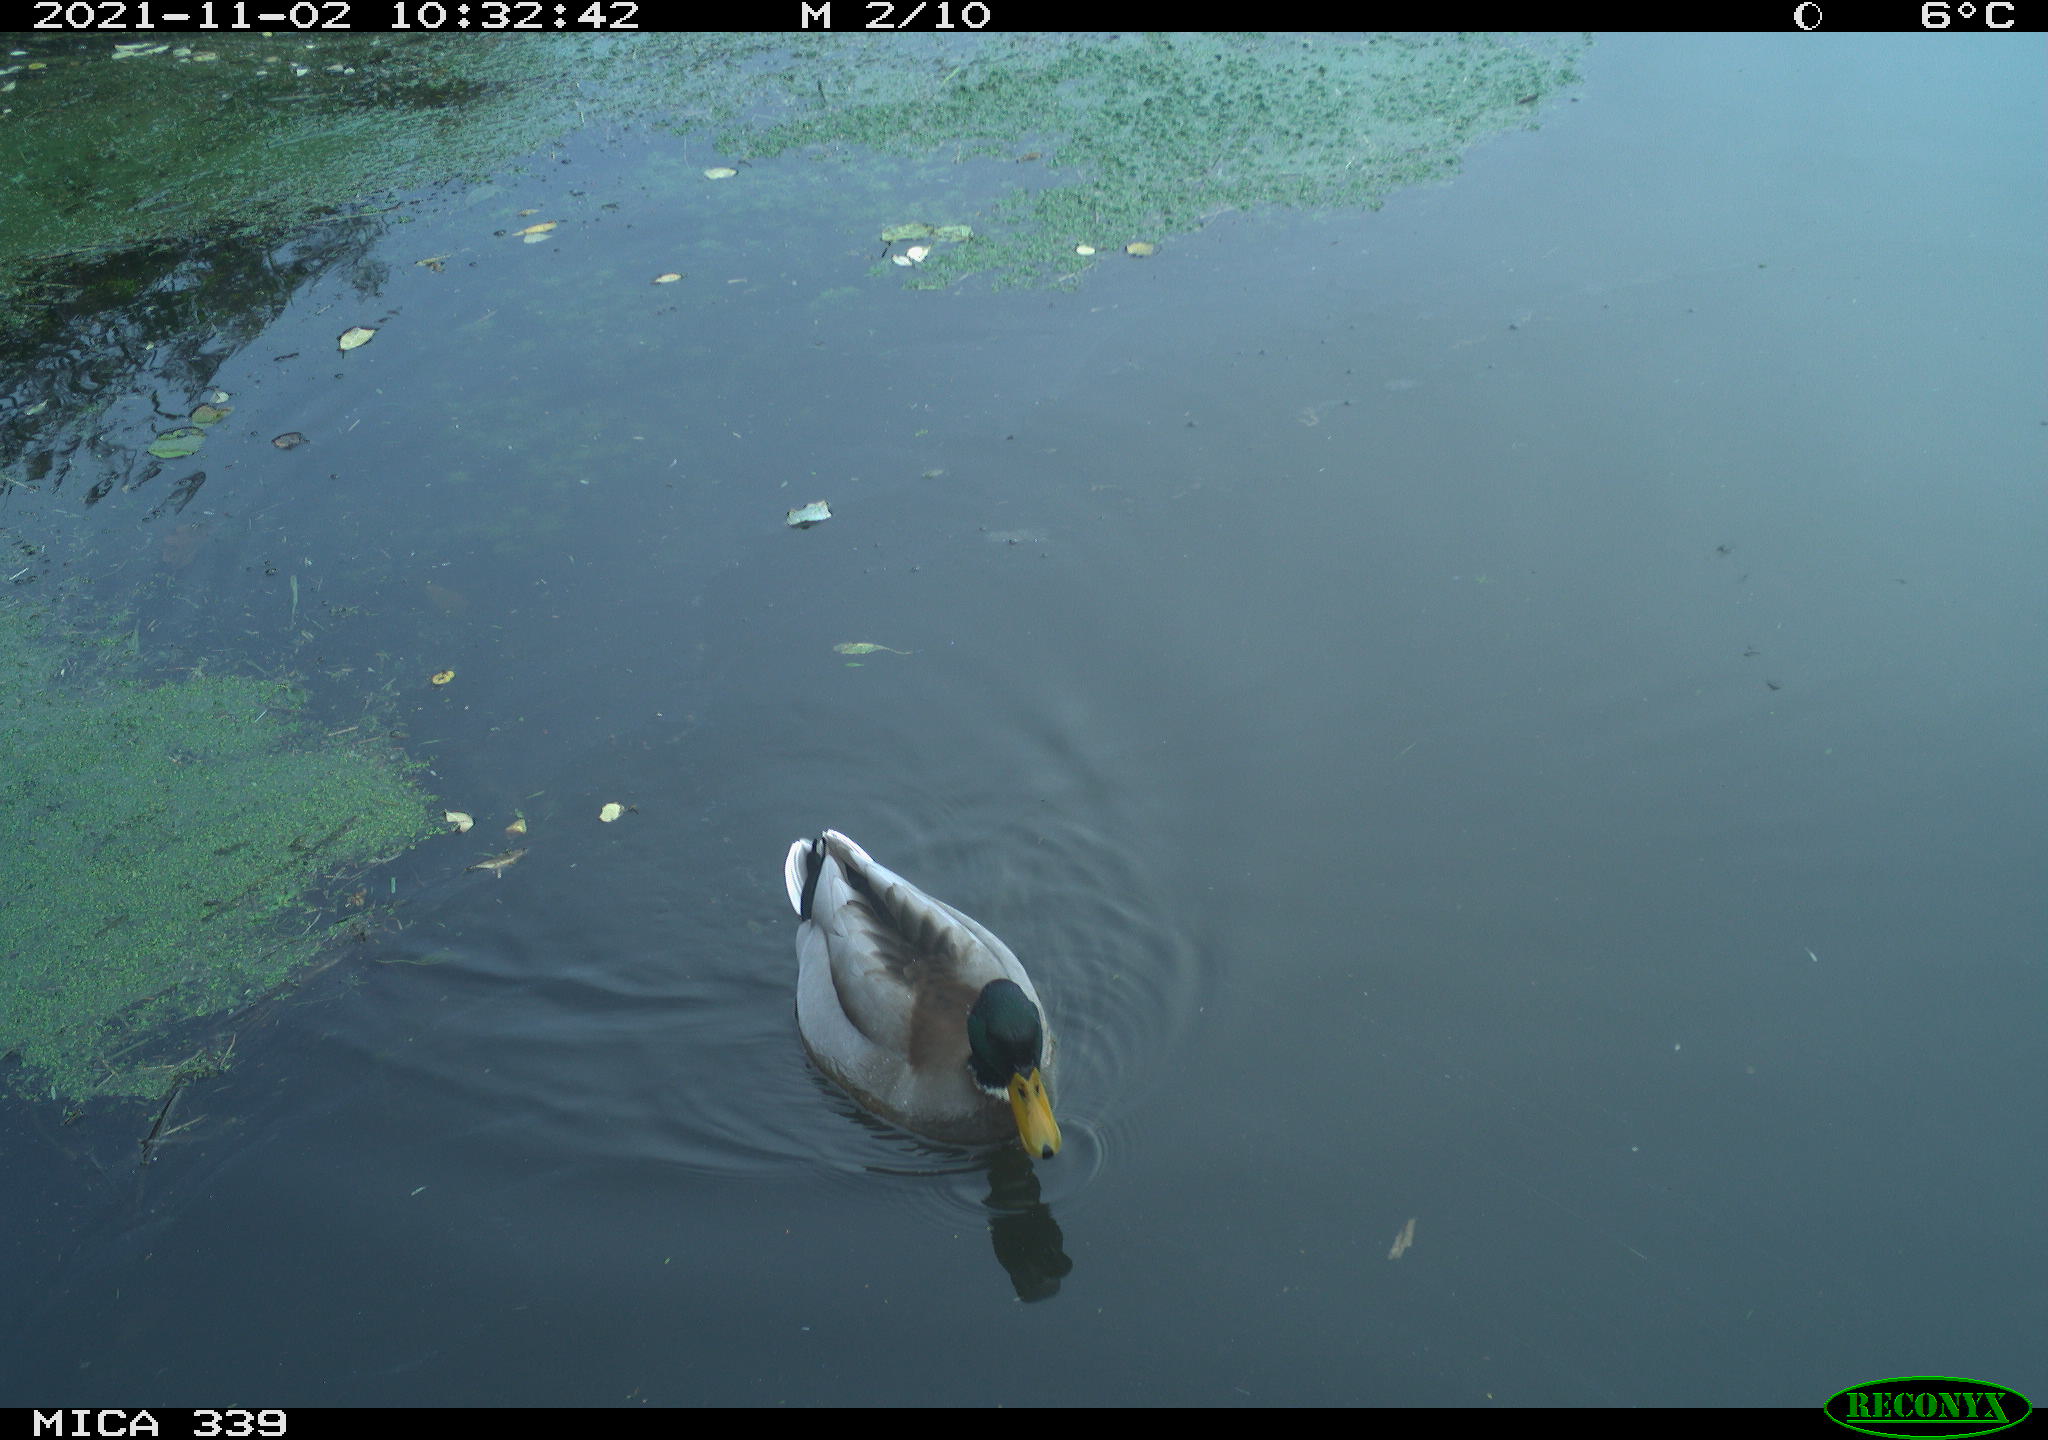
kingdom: Animalia
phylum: Chordata
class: Aves
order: Anseriformes
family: Anatidae
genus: Anas
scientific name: Anas platyrhynchos
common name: Mallard
